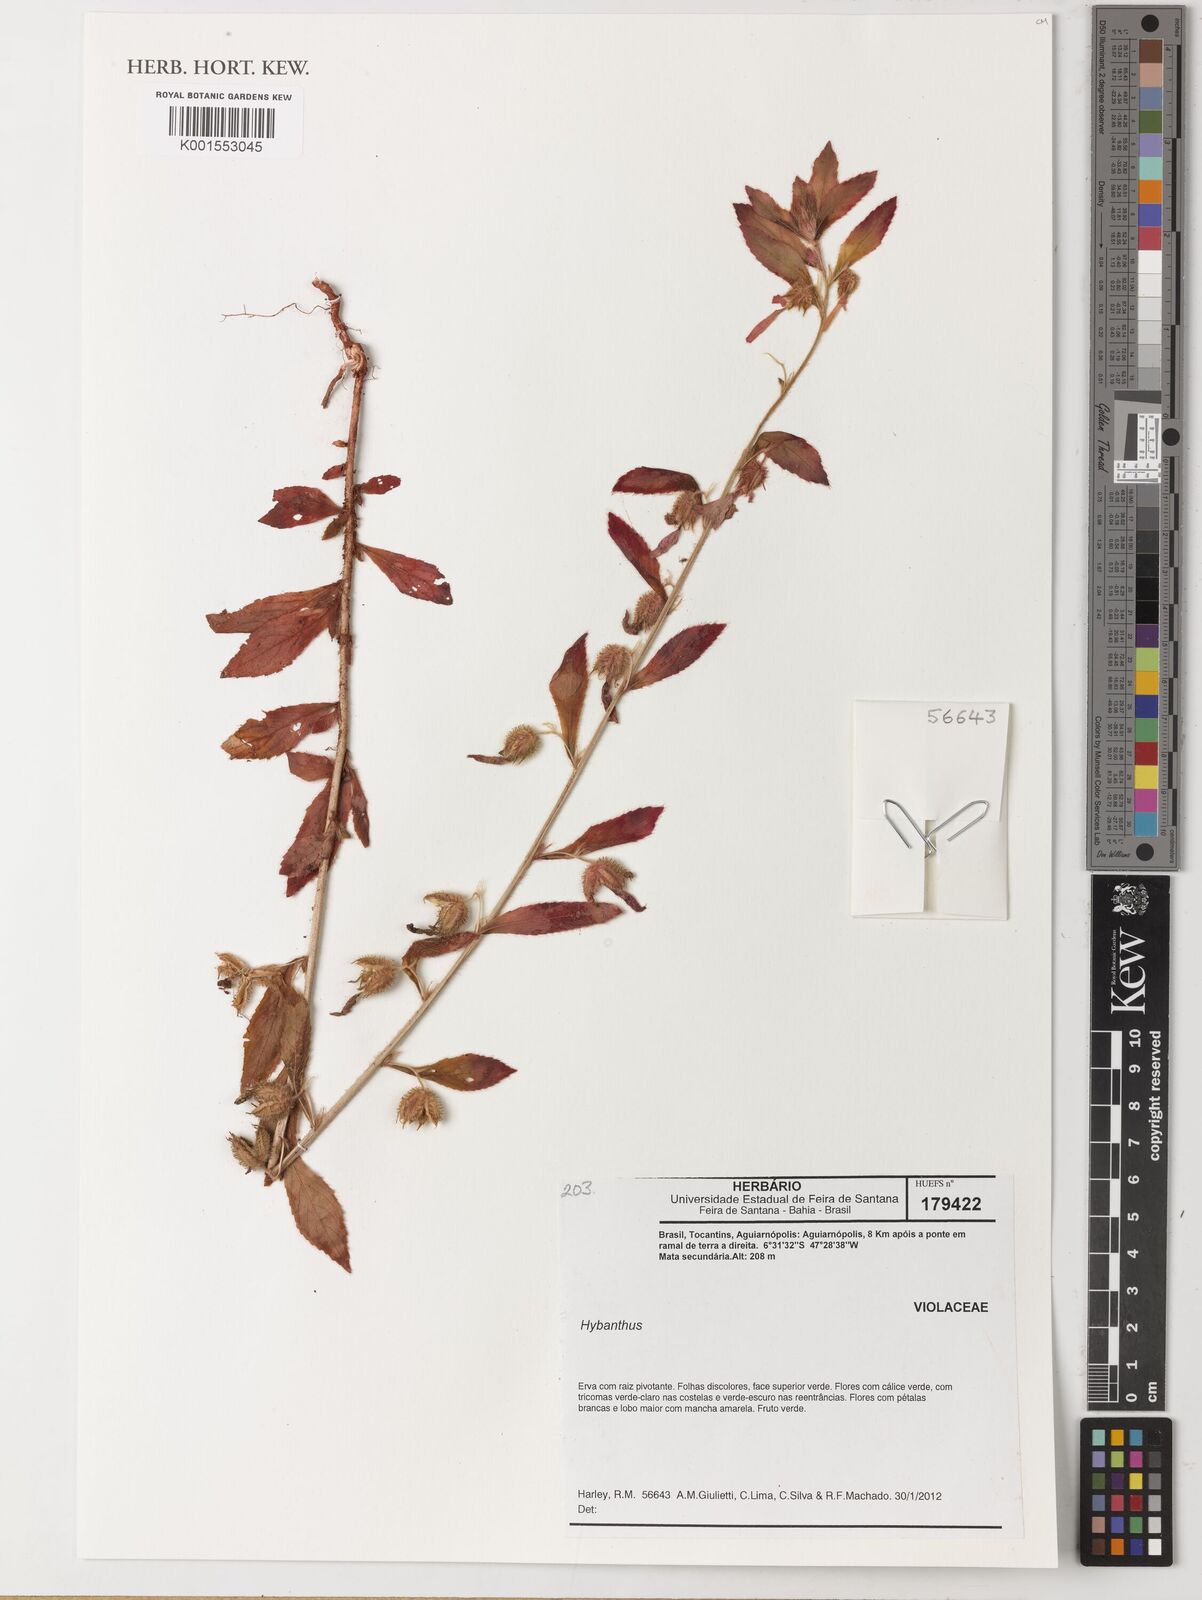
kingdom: Plantae
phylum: Tracheophyta
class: Magnoliopsida
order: Malpighiales
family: Violaceae
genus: Hybanthus
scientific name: Hybanthus
